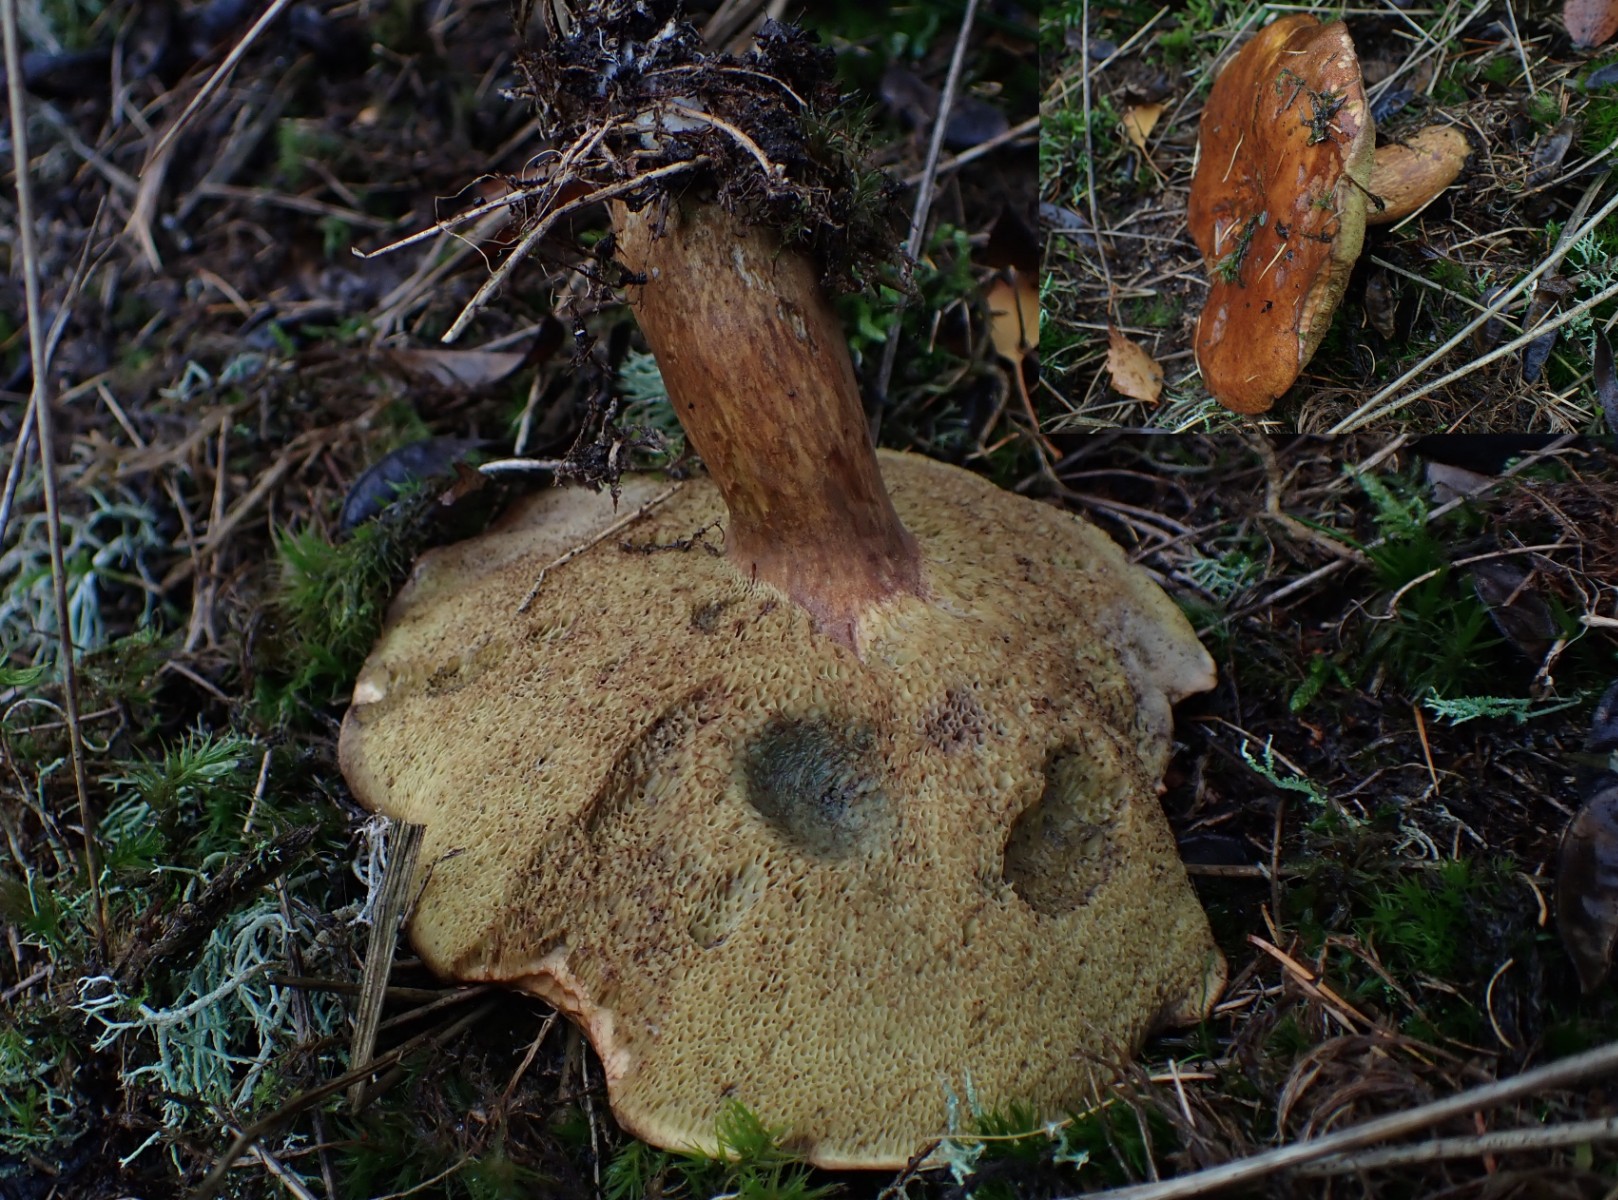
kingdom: Fungi
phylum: Basidiomycota
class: Agaricomycetes
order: Boletales
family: Boletaceae
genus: Imleria
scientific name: Imleria badia
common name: brunstokket rørhat
